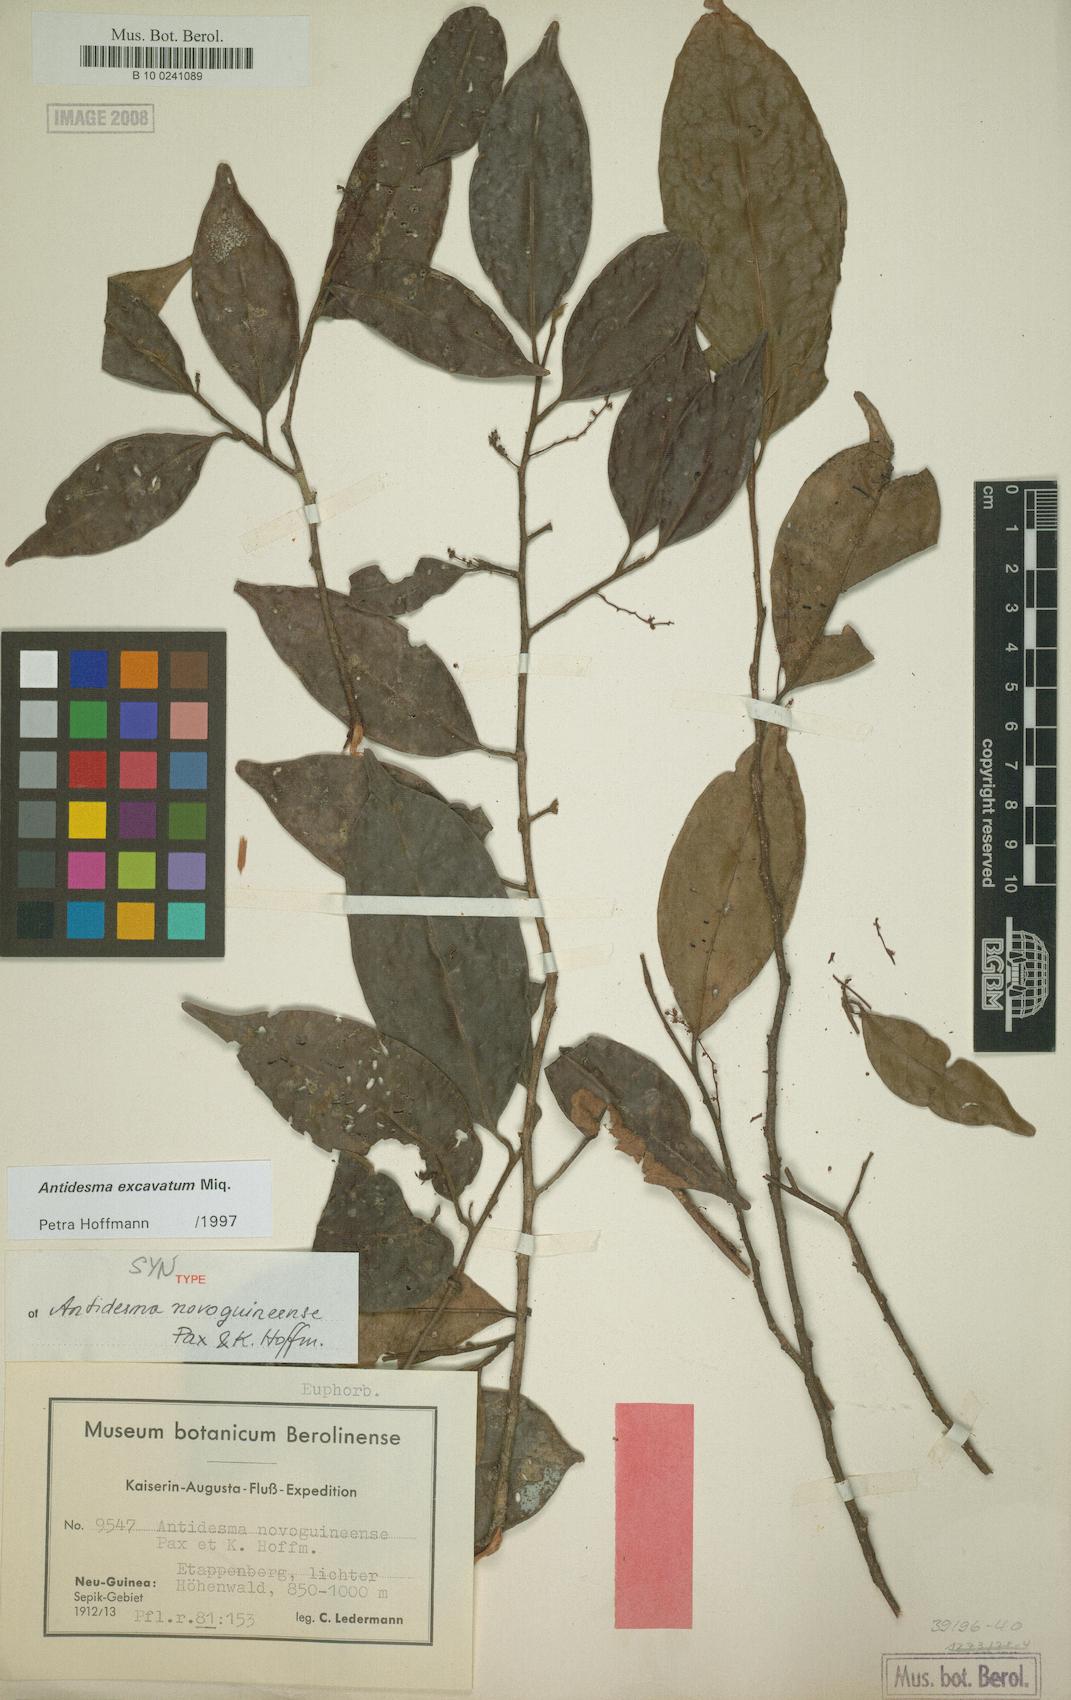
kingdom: Plantae
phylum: Tracheophyta
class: Magnoliopsida
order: Malpighiales
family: Phyllanthaceae
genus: Antidesma
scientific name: Antidesma excavatum
